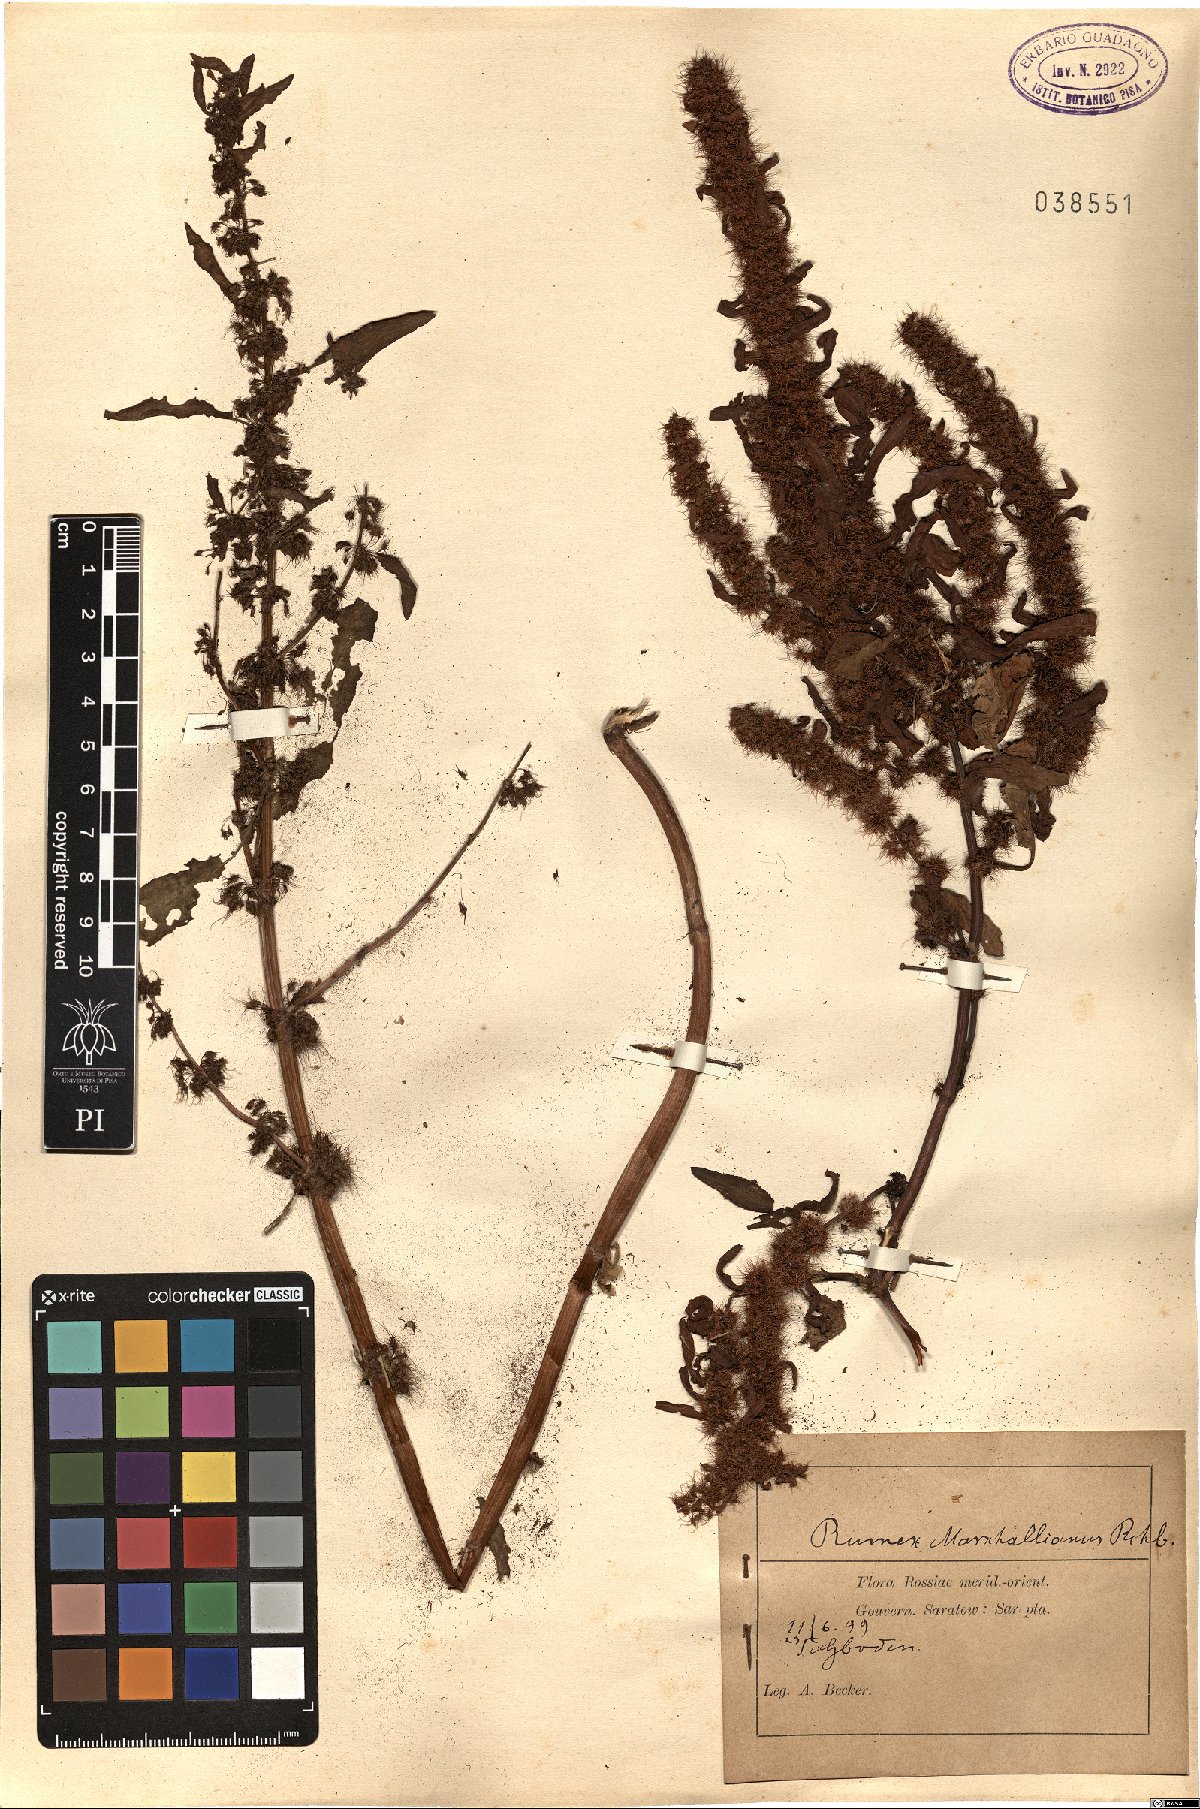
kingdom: Plantae
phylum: Tracheophyta
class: Magnoliopsida
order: Caryophyllales
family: Polygonaceae
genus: Rumex
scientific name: Rumex marschallianus
